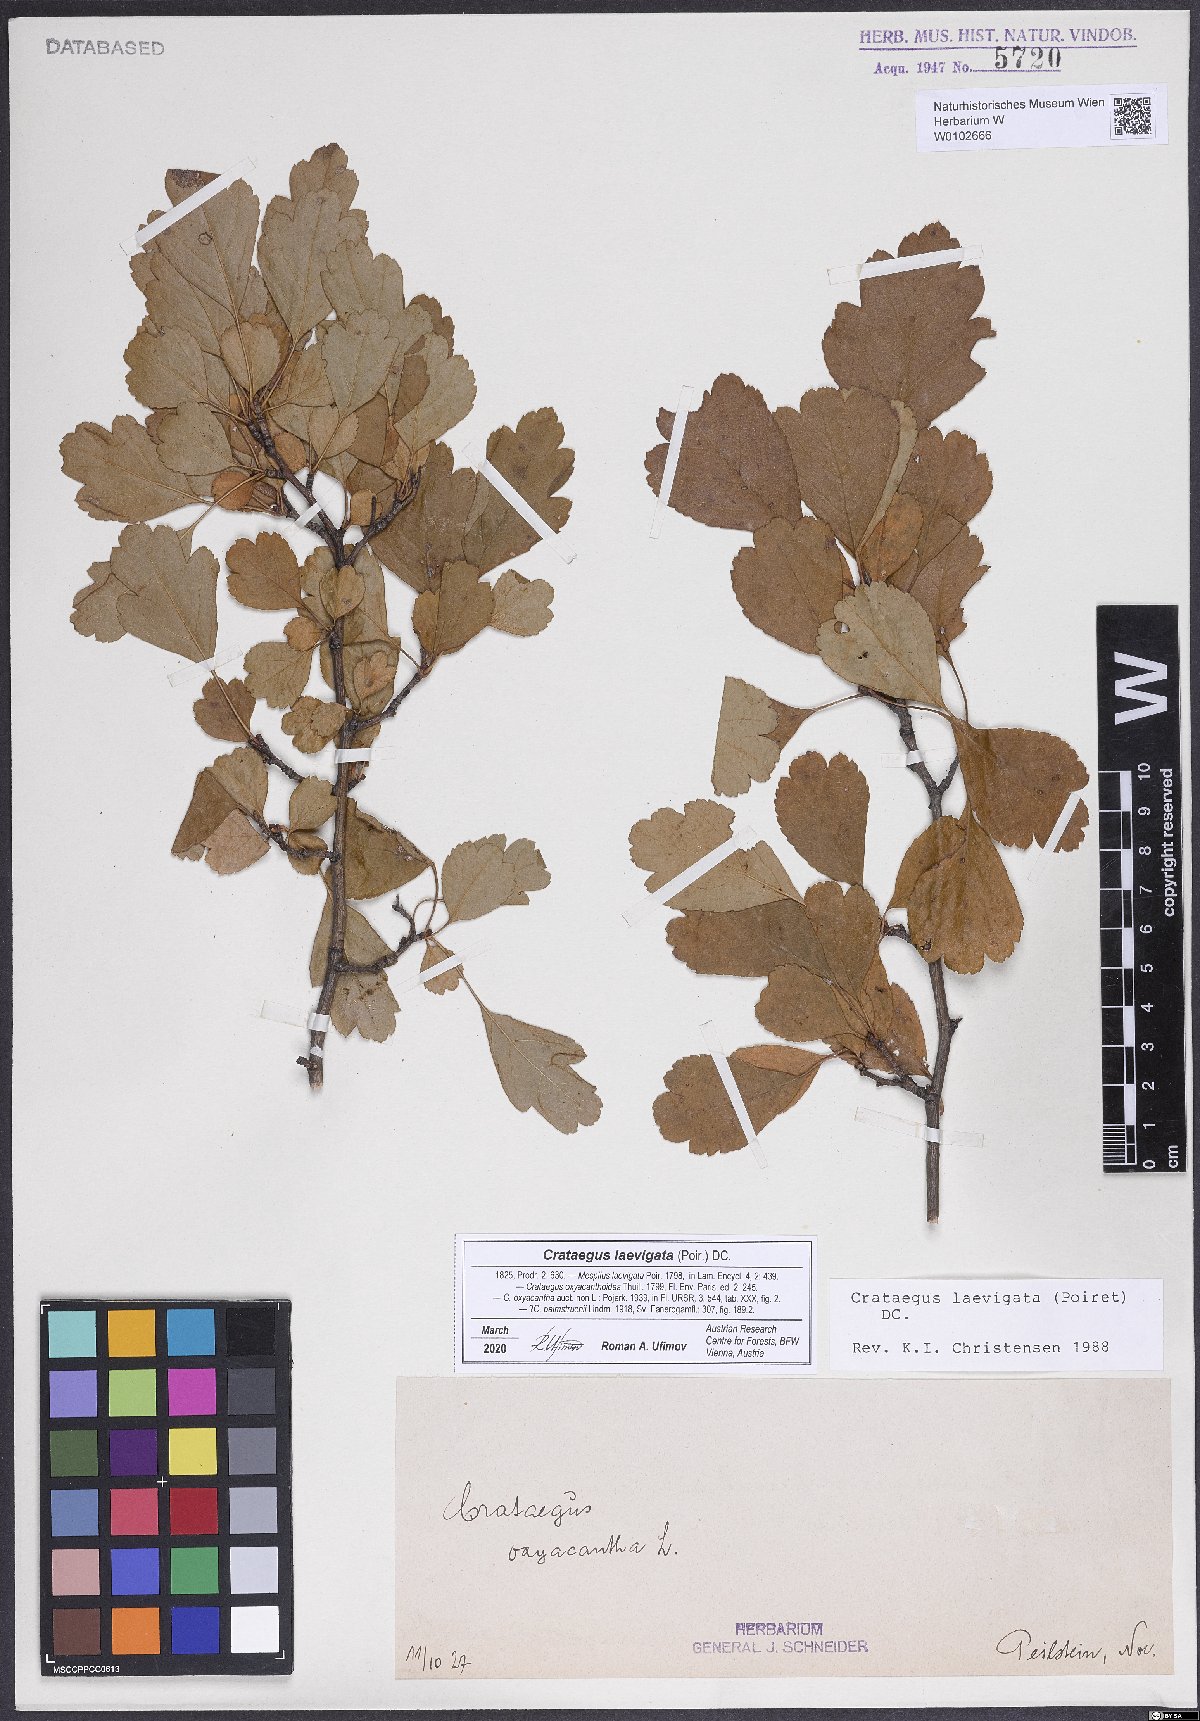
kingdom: Plantae
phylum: Tracheophyta
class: Magnoliopsida
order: Rosales
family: Rosaceae
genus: Crataegus
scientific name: Crataegus laevigata
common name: Midland hawthorn
